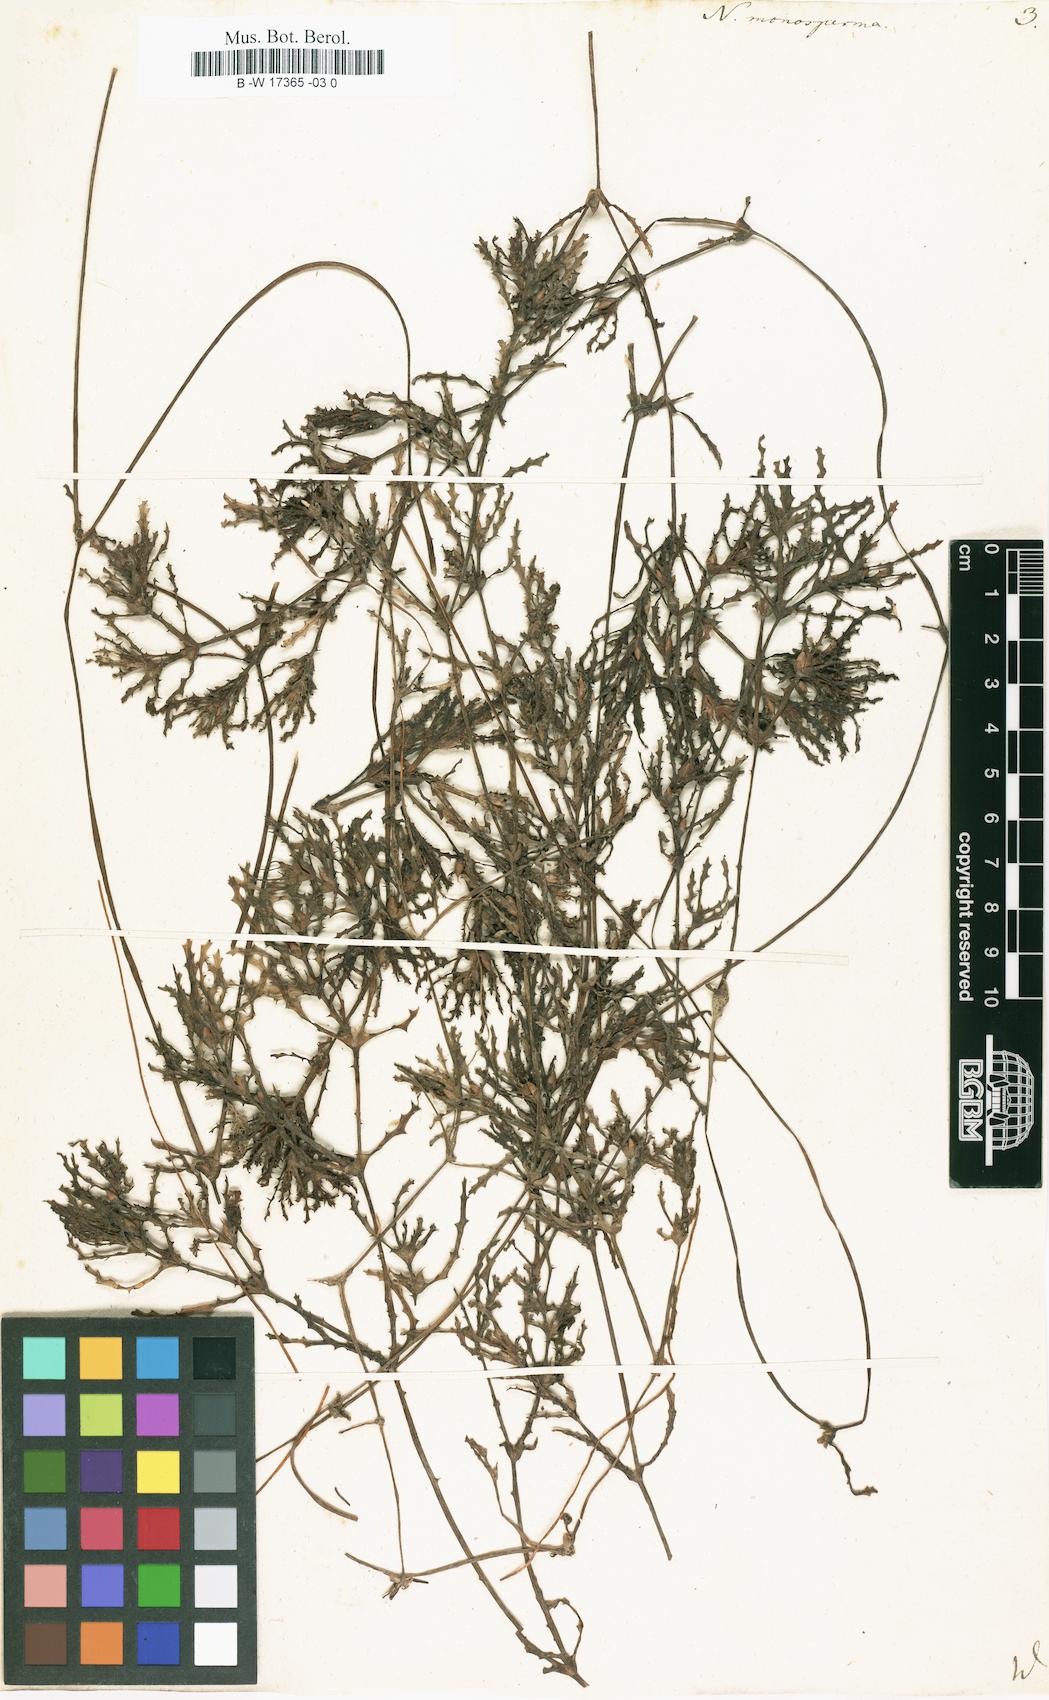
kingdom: Plantae
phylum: Tracheophyta
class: Liliopsida
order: Alismatales
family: Hydrocharitaceae
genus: Najas
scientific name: Najas major
